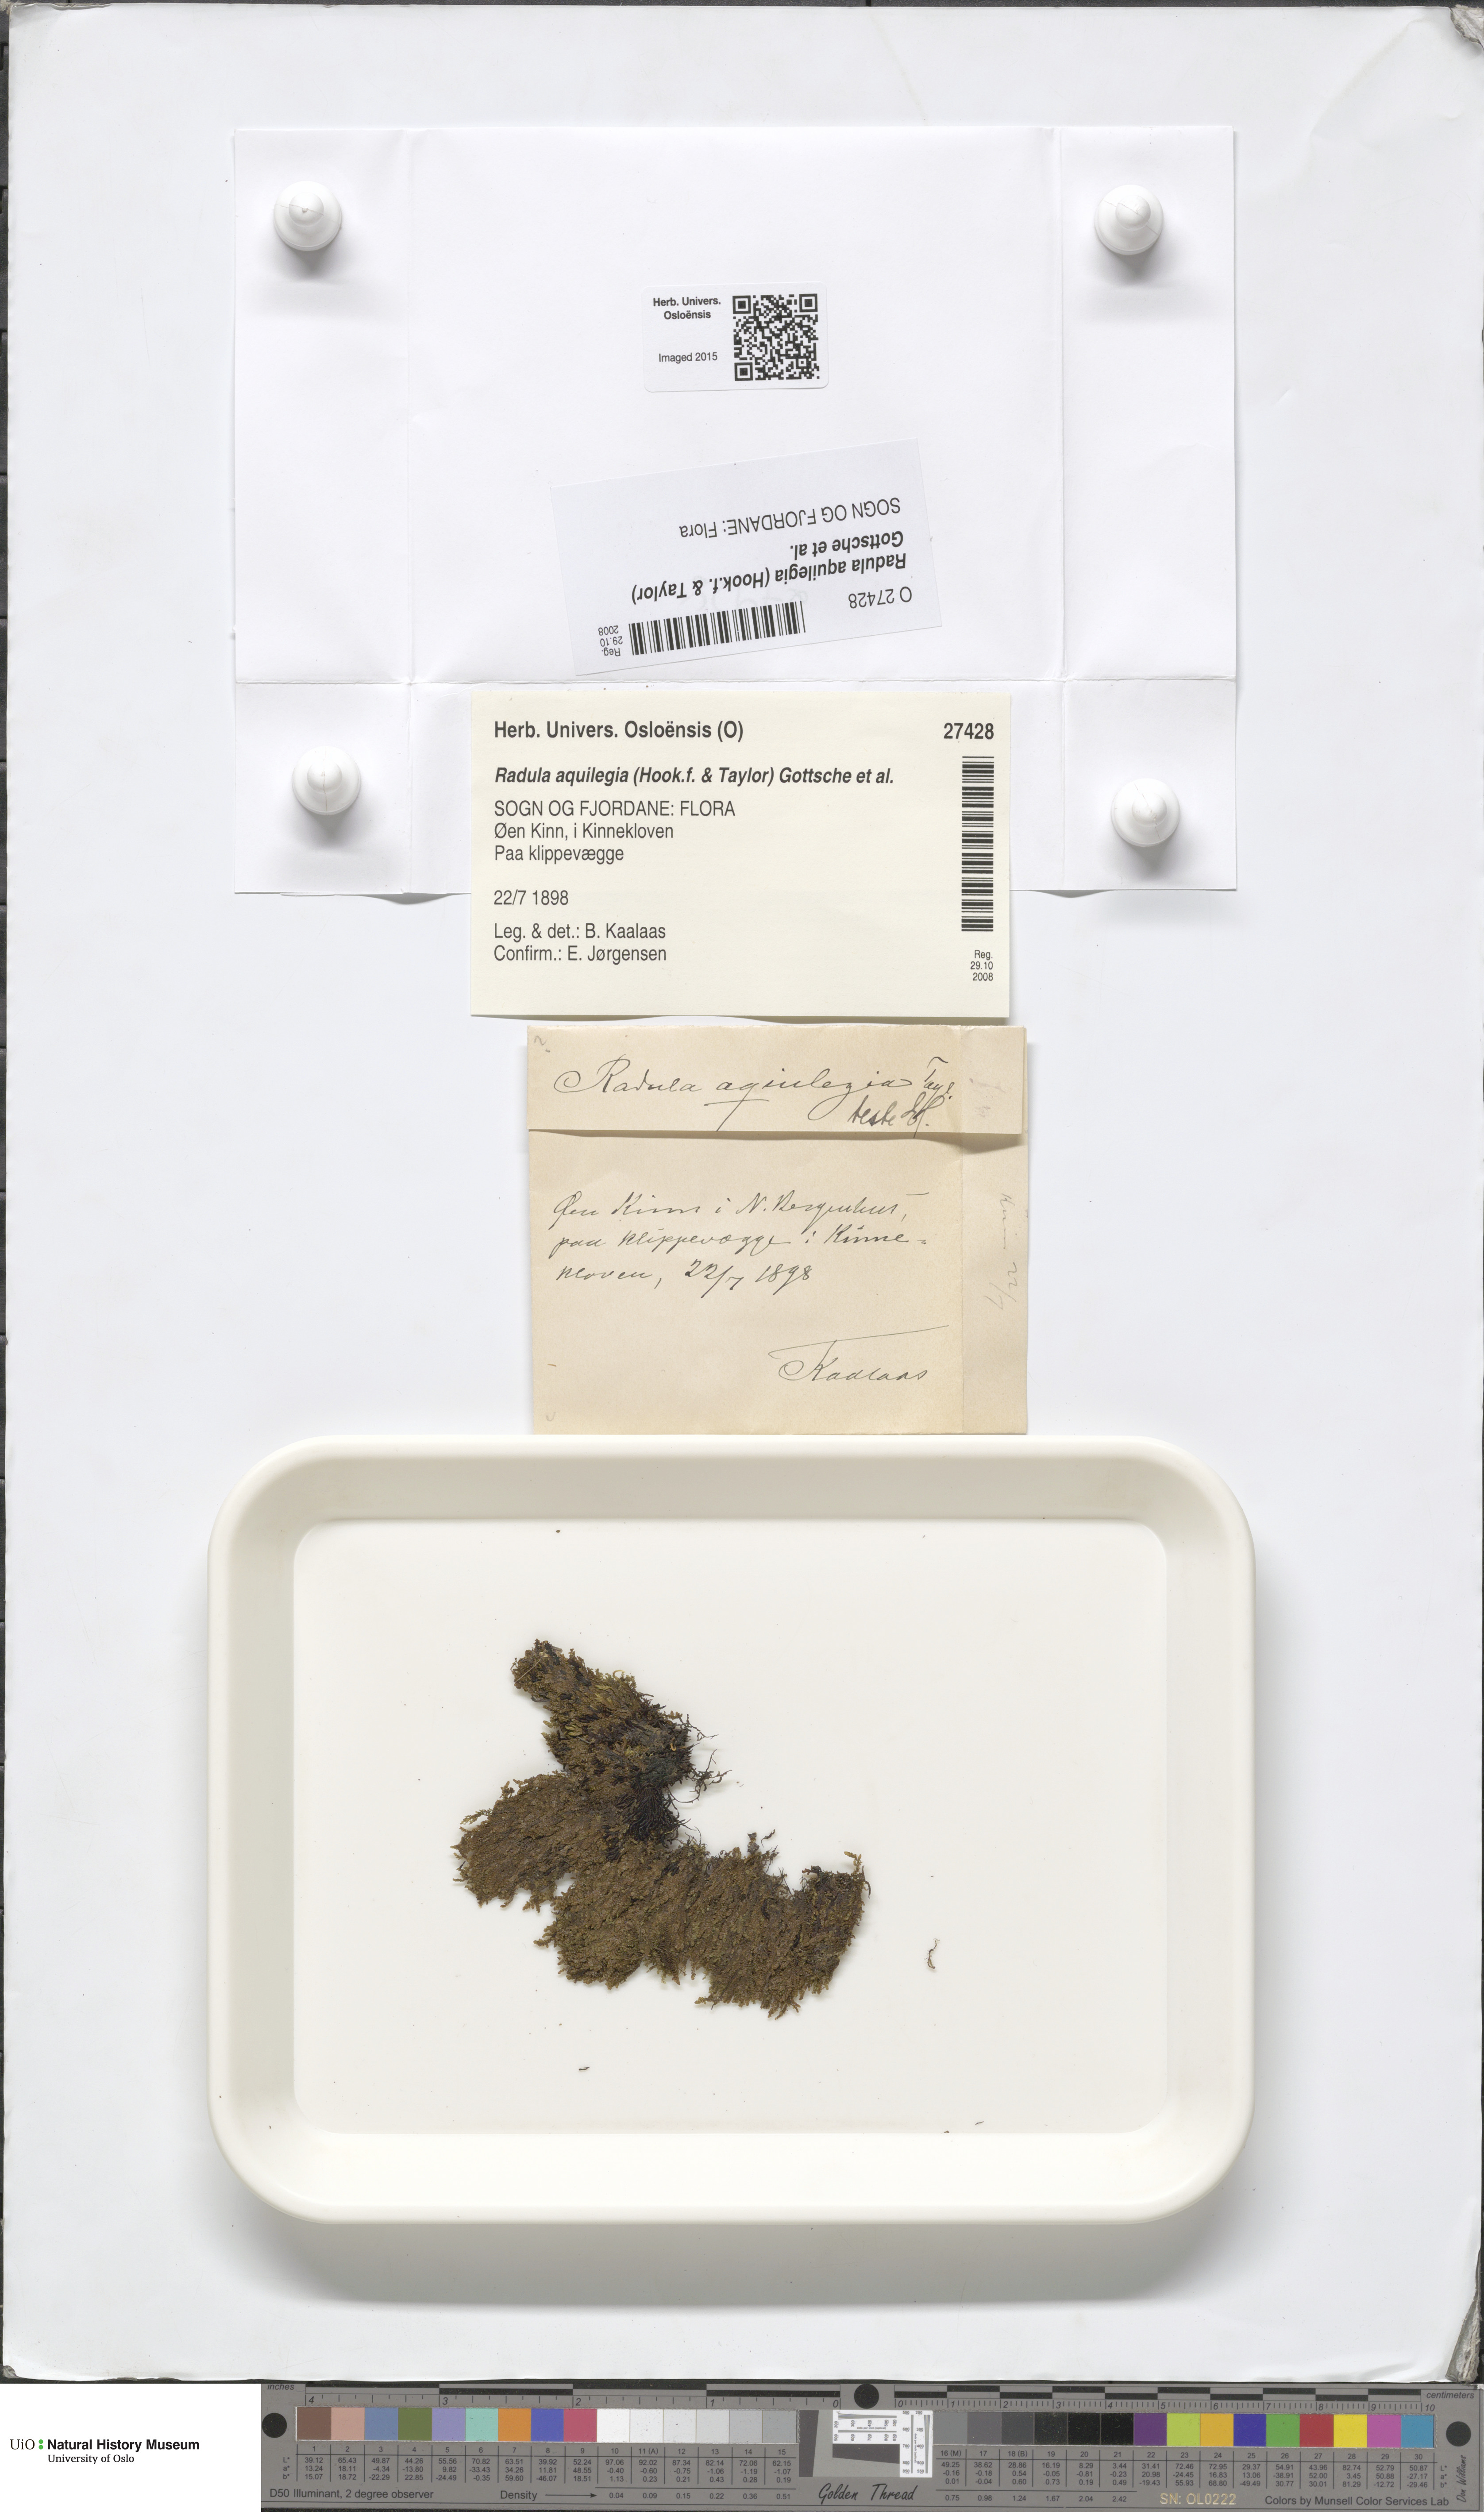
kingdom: Plantae
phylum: Marchantiophyta
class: Jungermanniopsida
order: Porellales
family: Radulaceae
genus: Radula
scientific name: Radula aquilegia
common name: Brown scalewort
